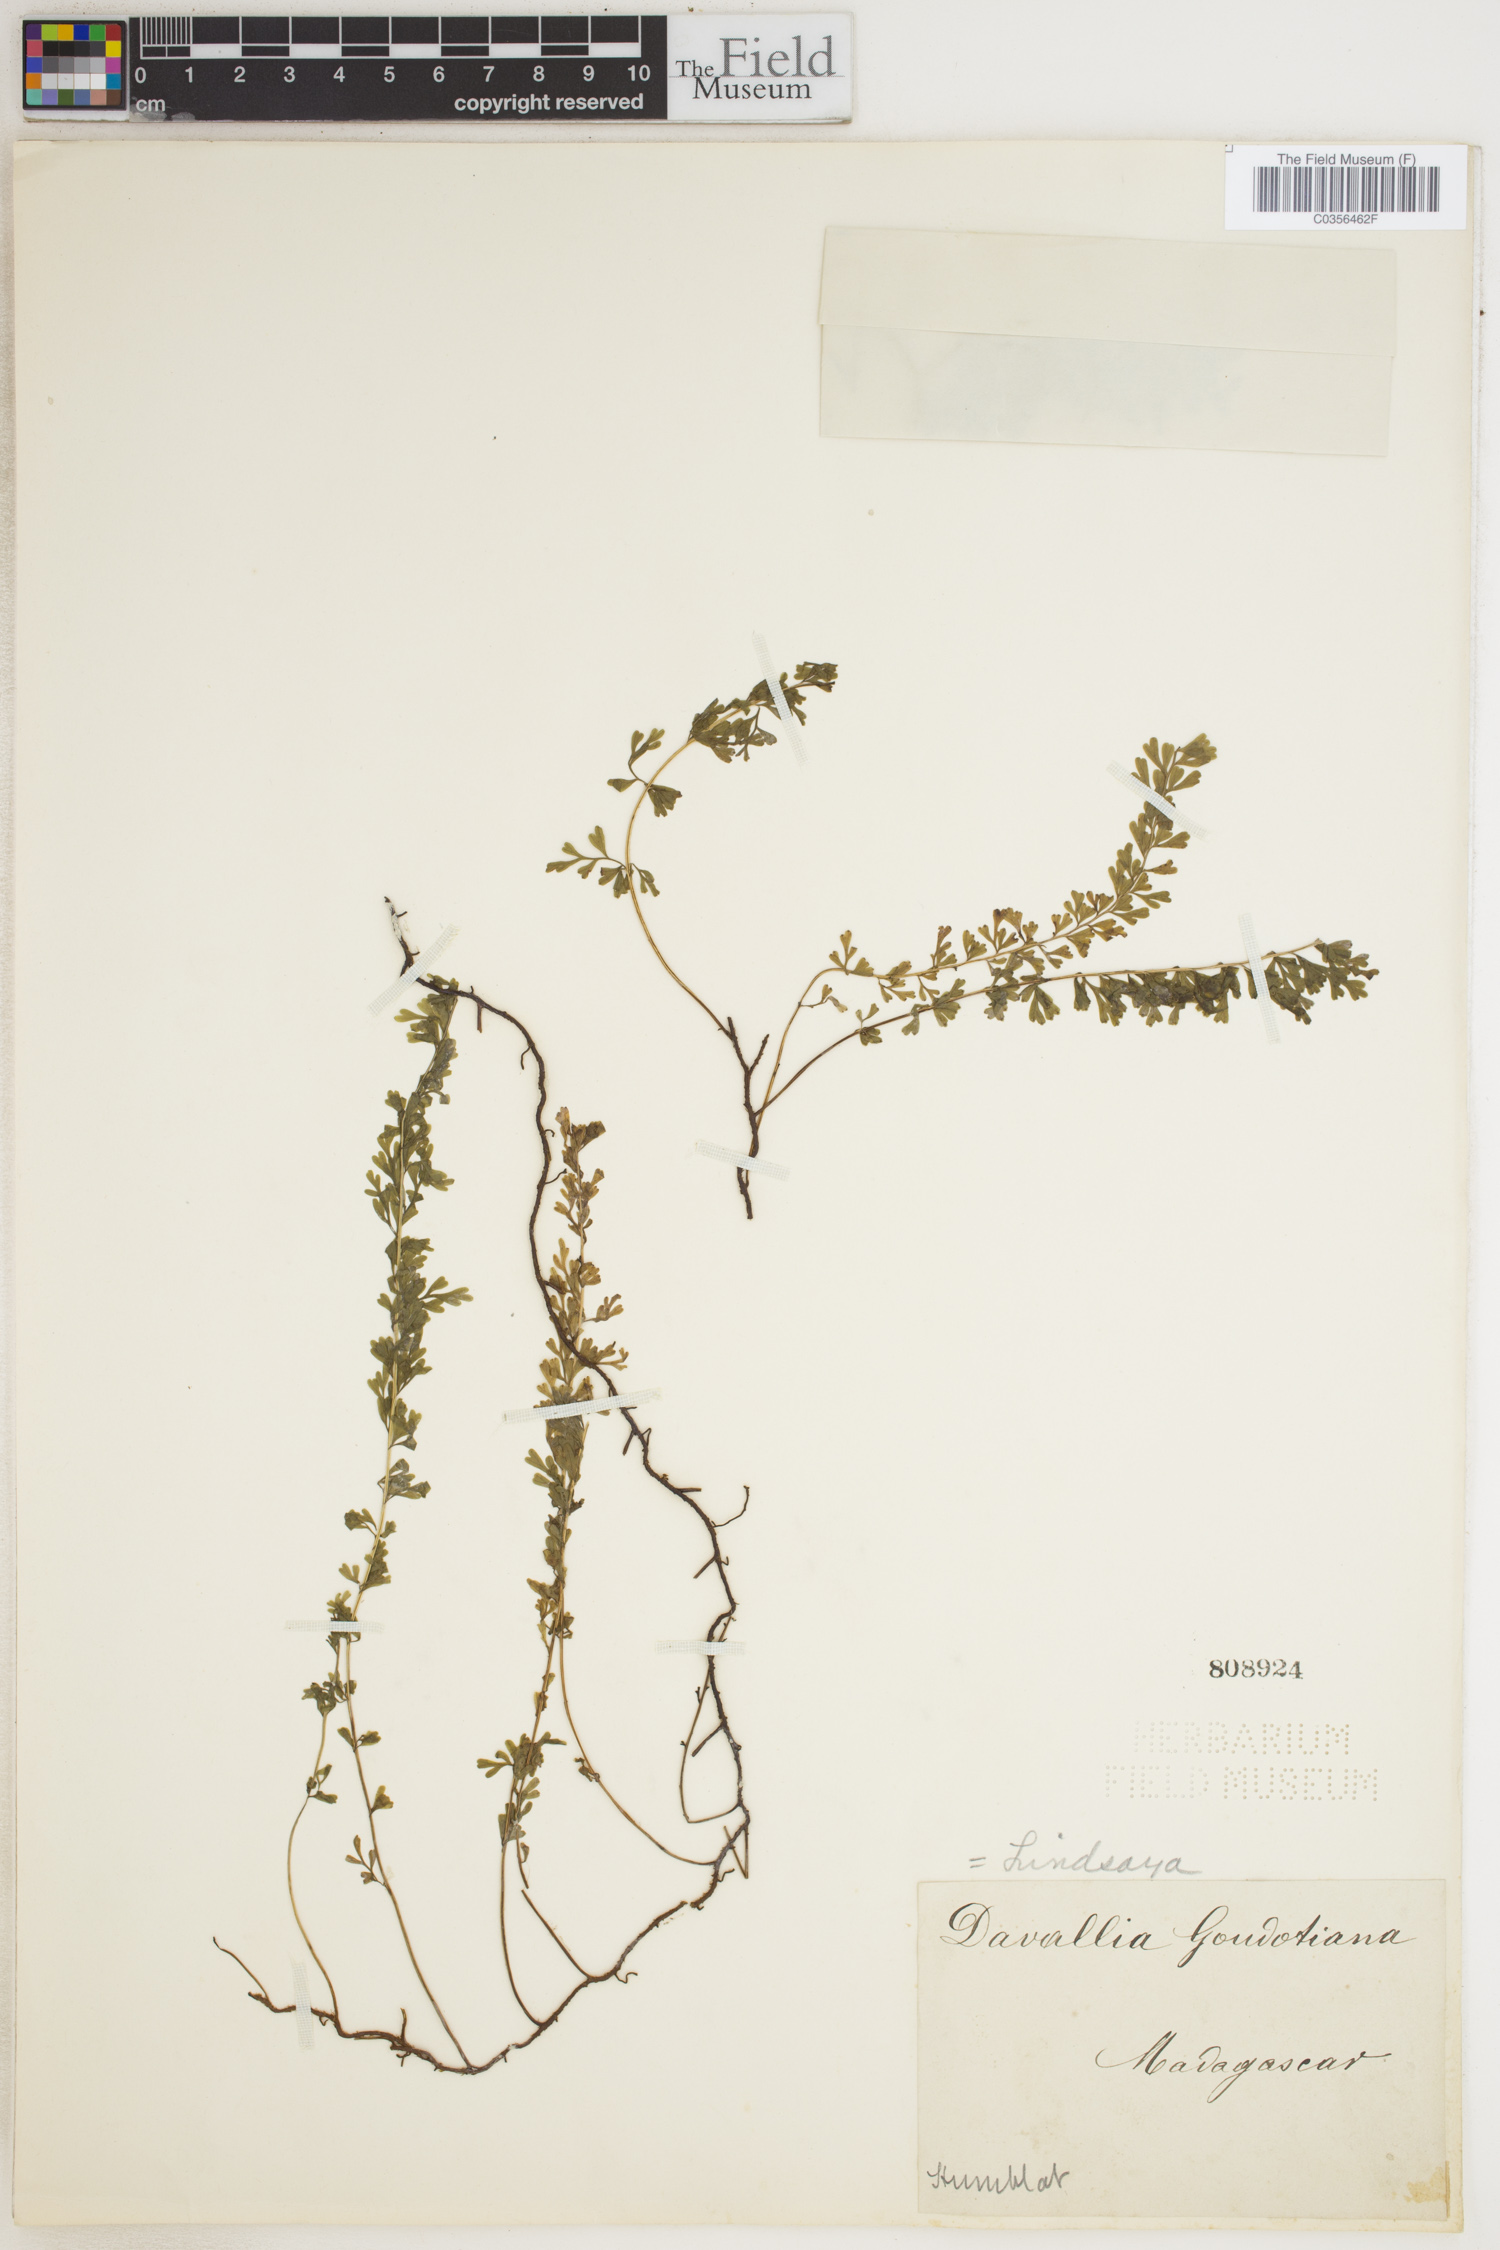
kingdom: Plantae
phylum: Tracheophyta
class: Polypodiopsida
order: Polypodiales
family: Dennstaedtiaceae
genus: Lindsaya
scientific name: Lindsaya
